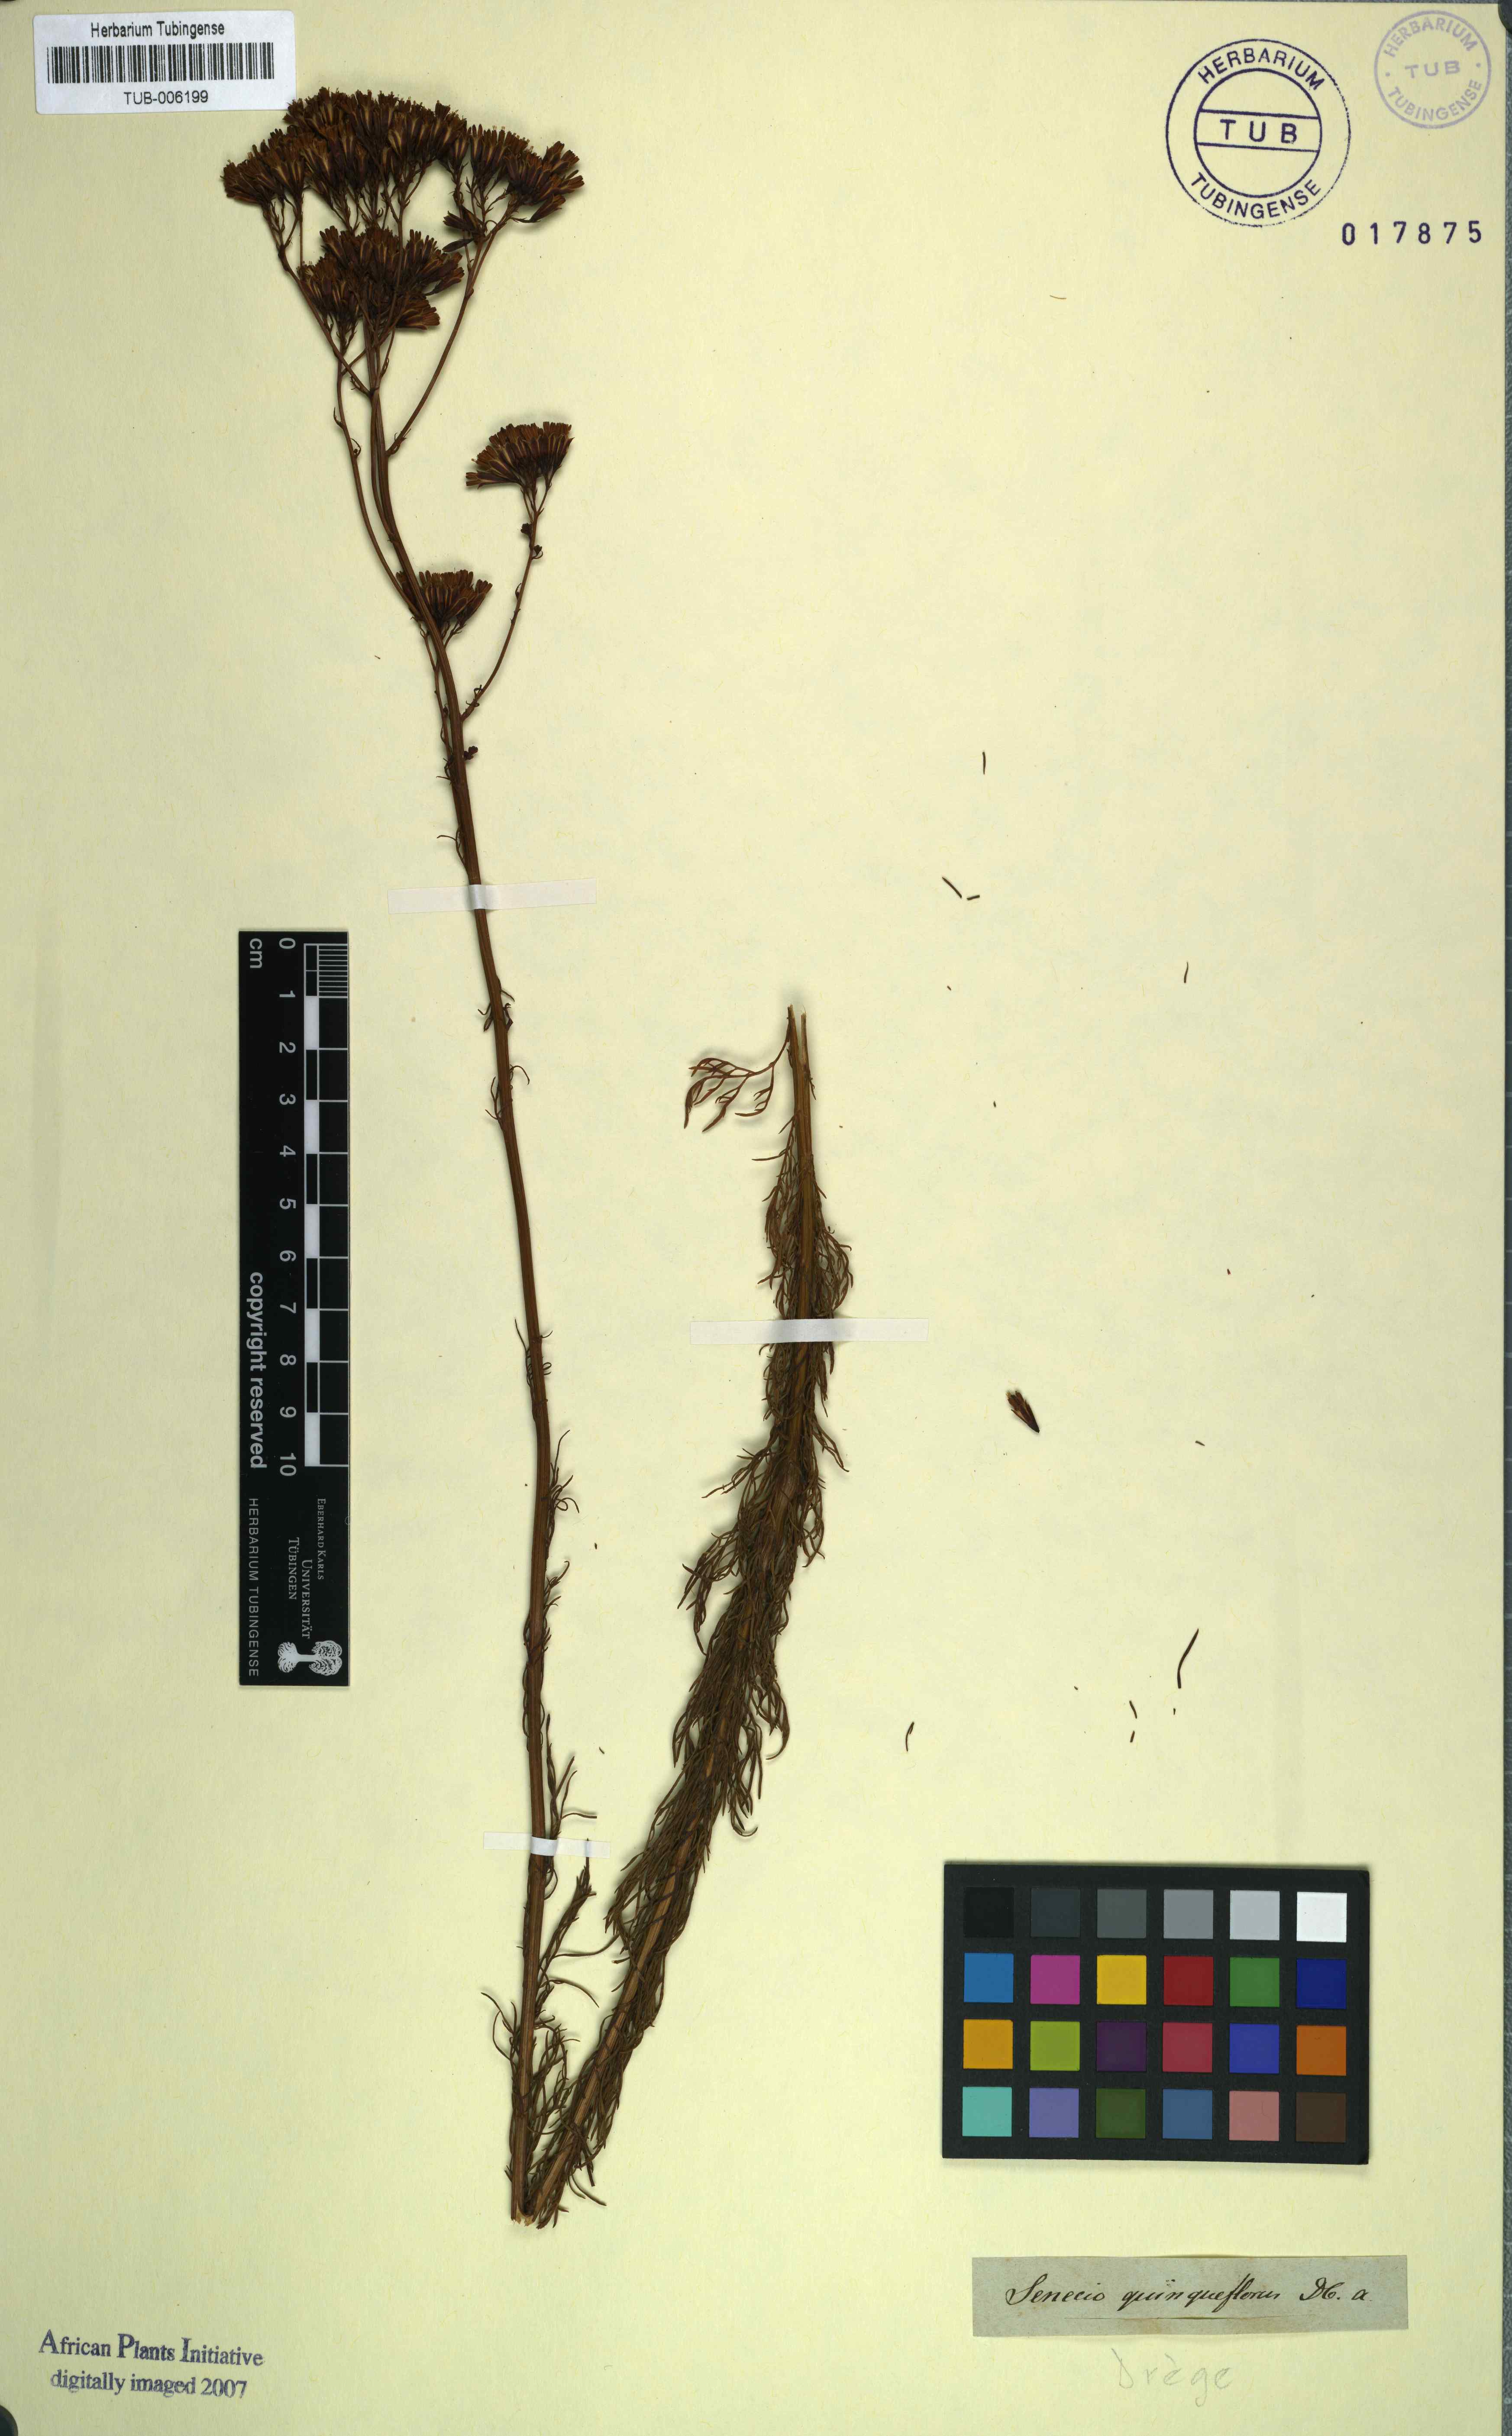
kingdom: Plantae
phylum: Tracheophyta
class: Magnoliopsida
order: Asterales
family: Asteraceae
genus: Senecio
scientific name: Senecio bipinnatus
